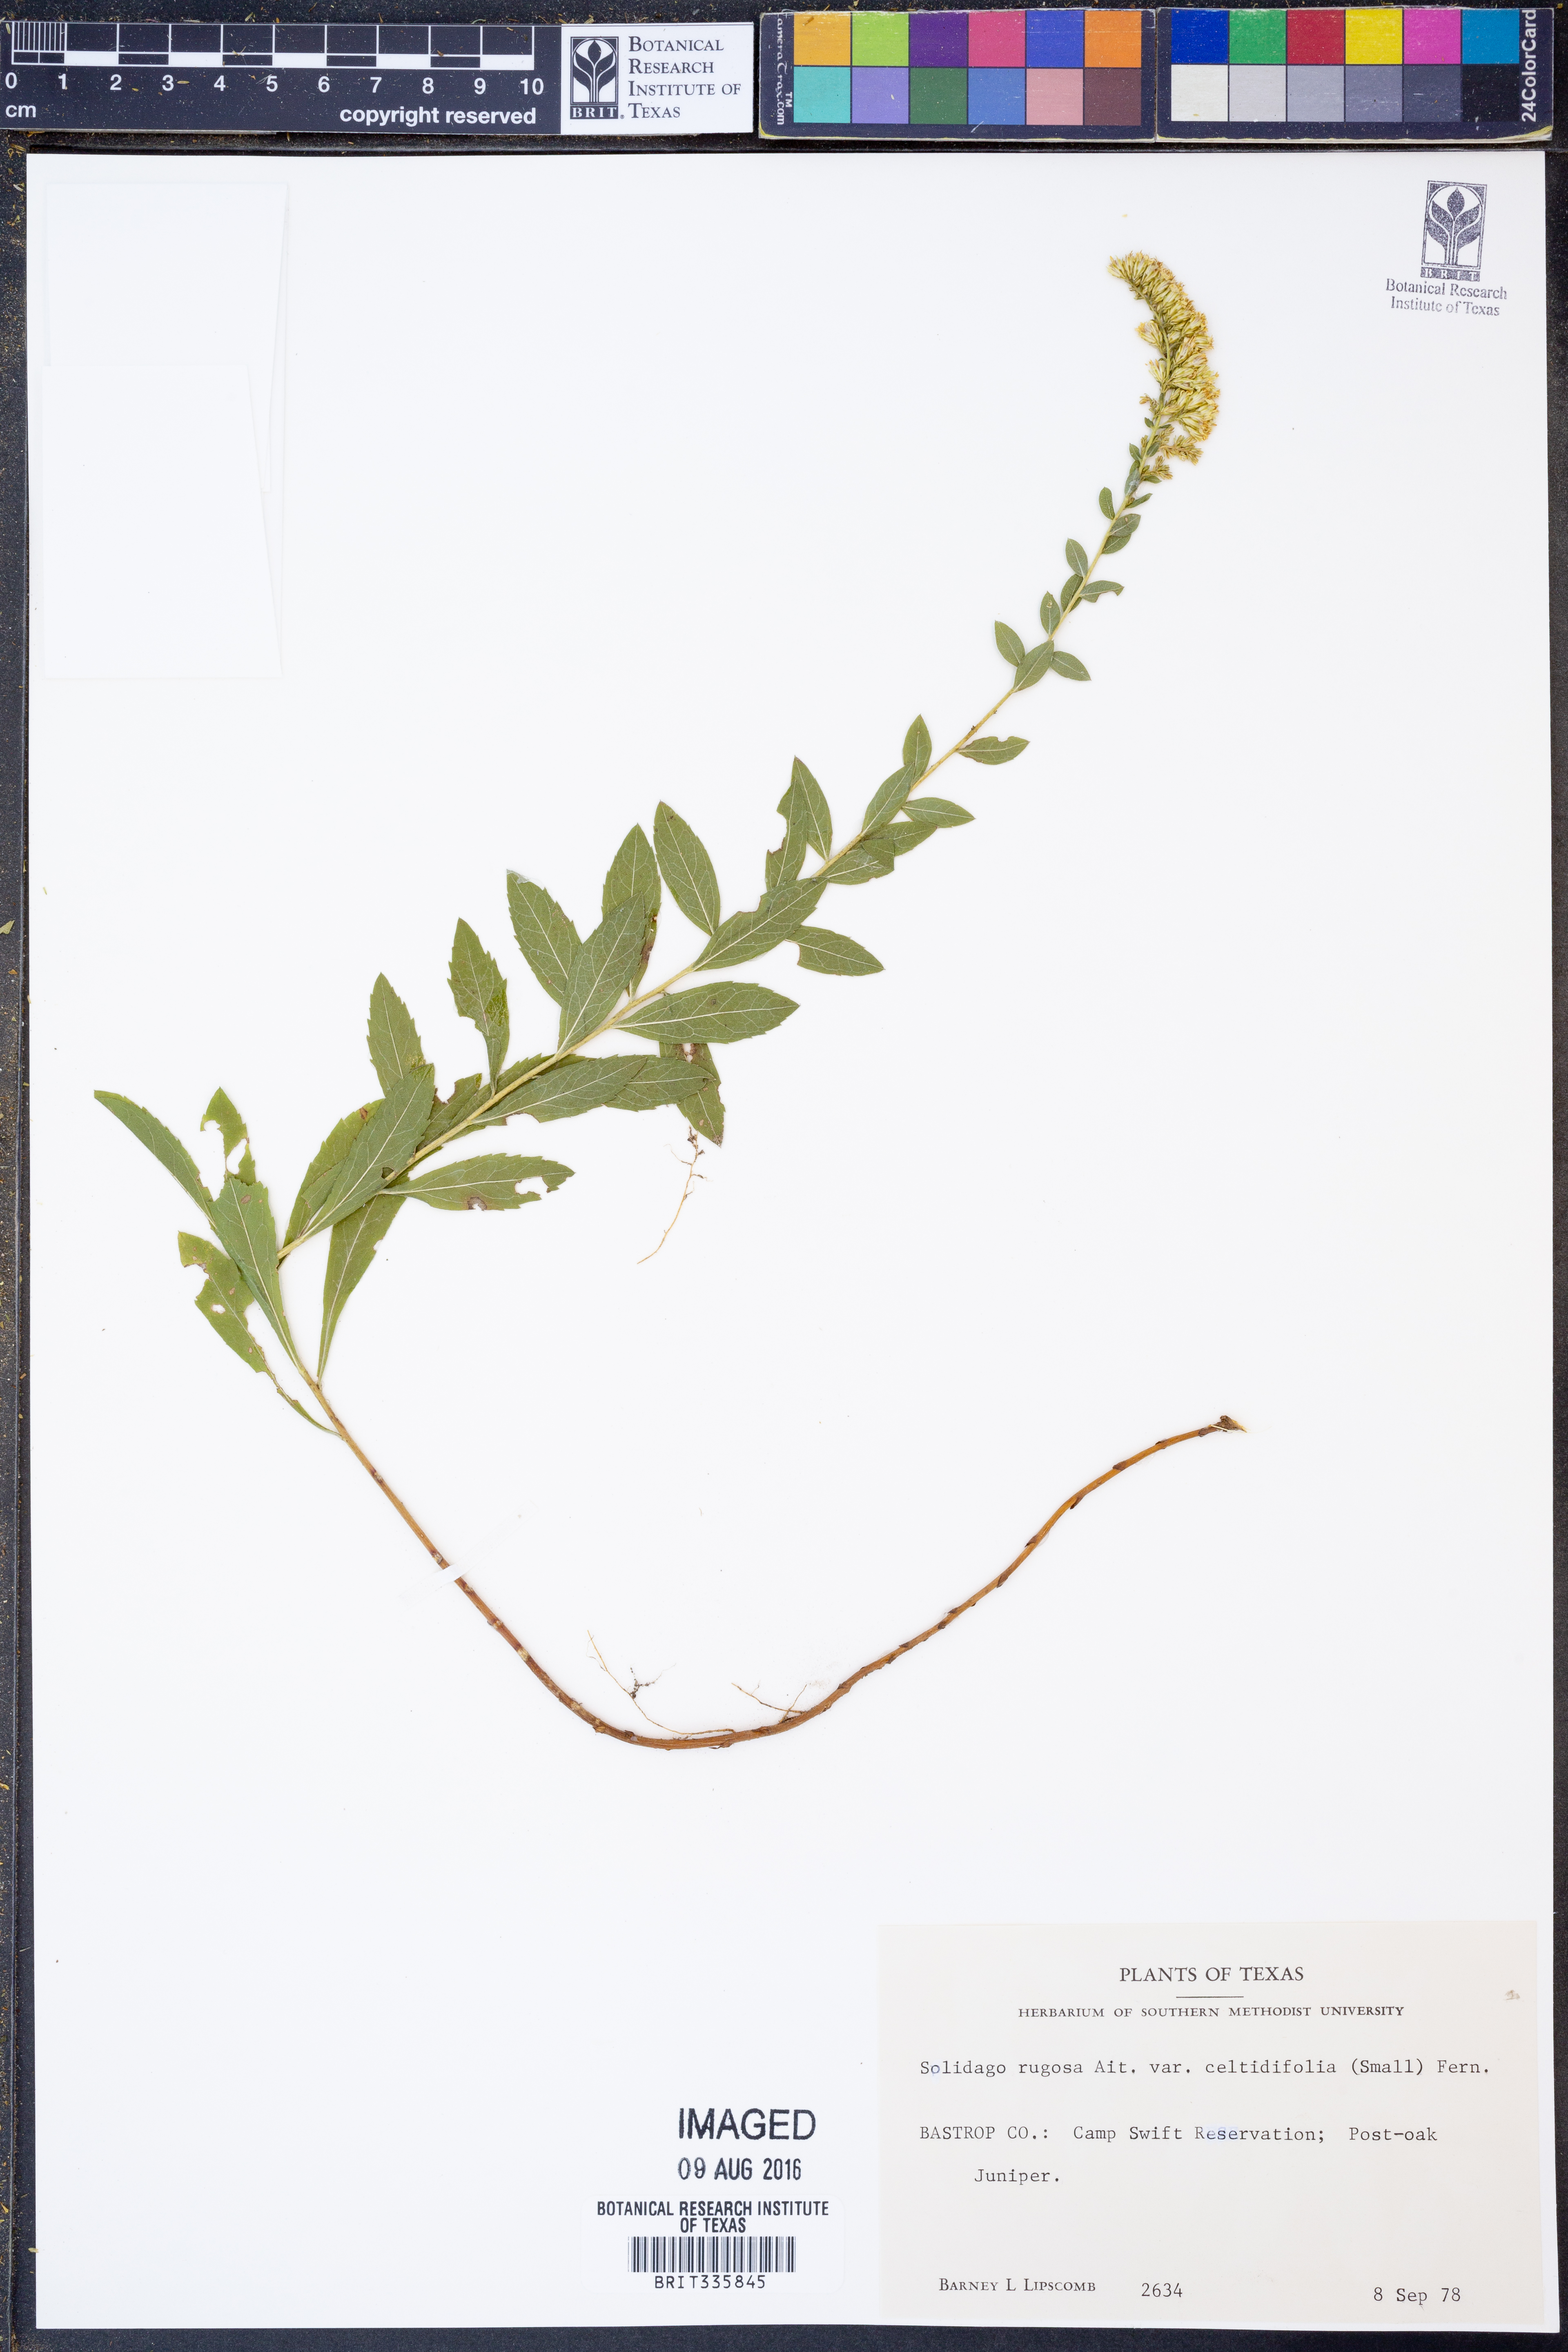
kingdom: Plantae
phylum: Tracheophyta
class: Magnoliopsida
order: Asterales
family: Asteraceae
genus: Solidago
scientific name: Solidago rugosa
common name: Rough-stemmed goldenrod
